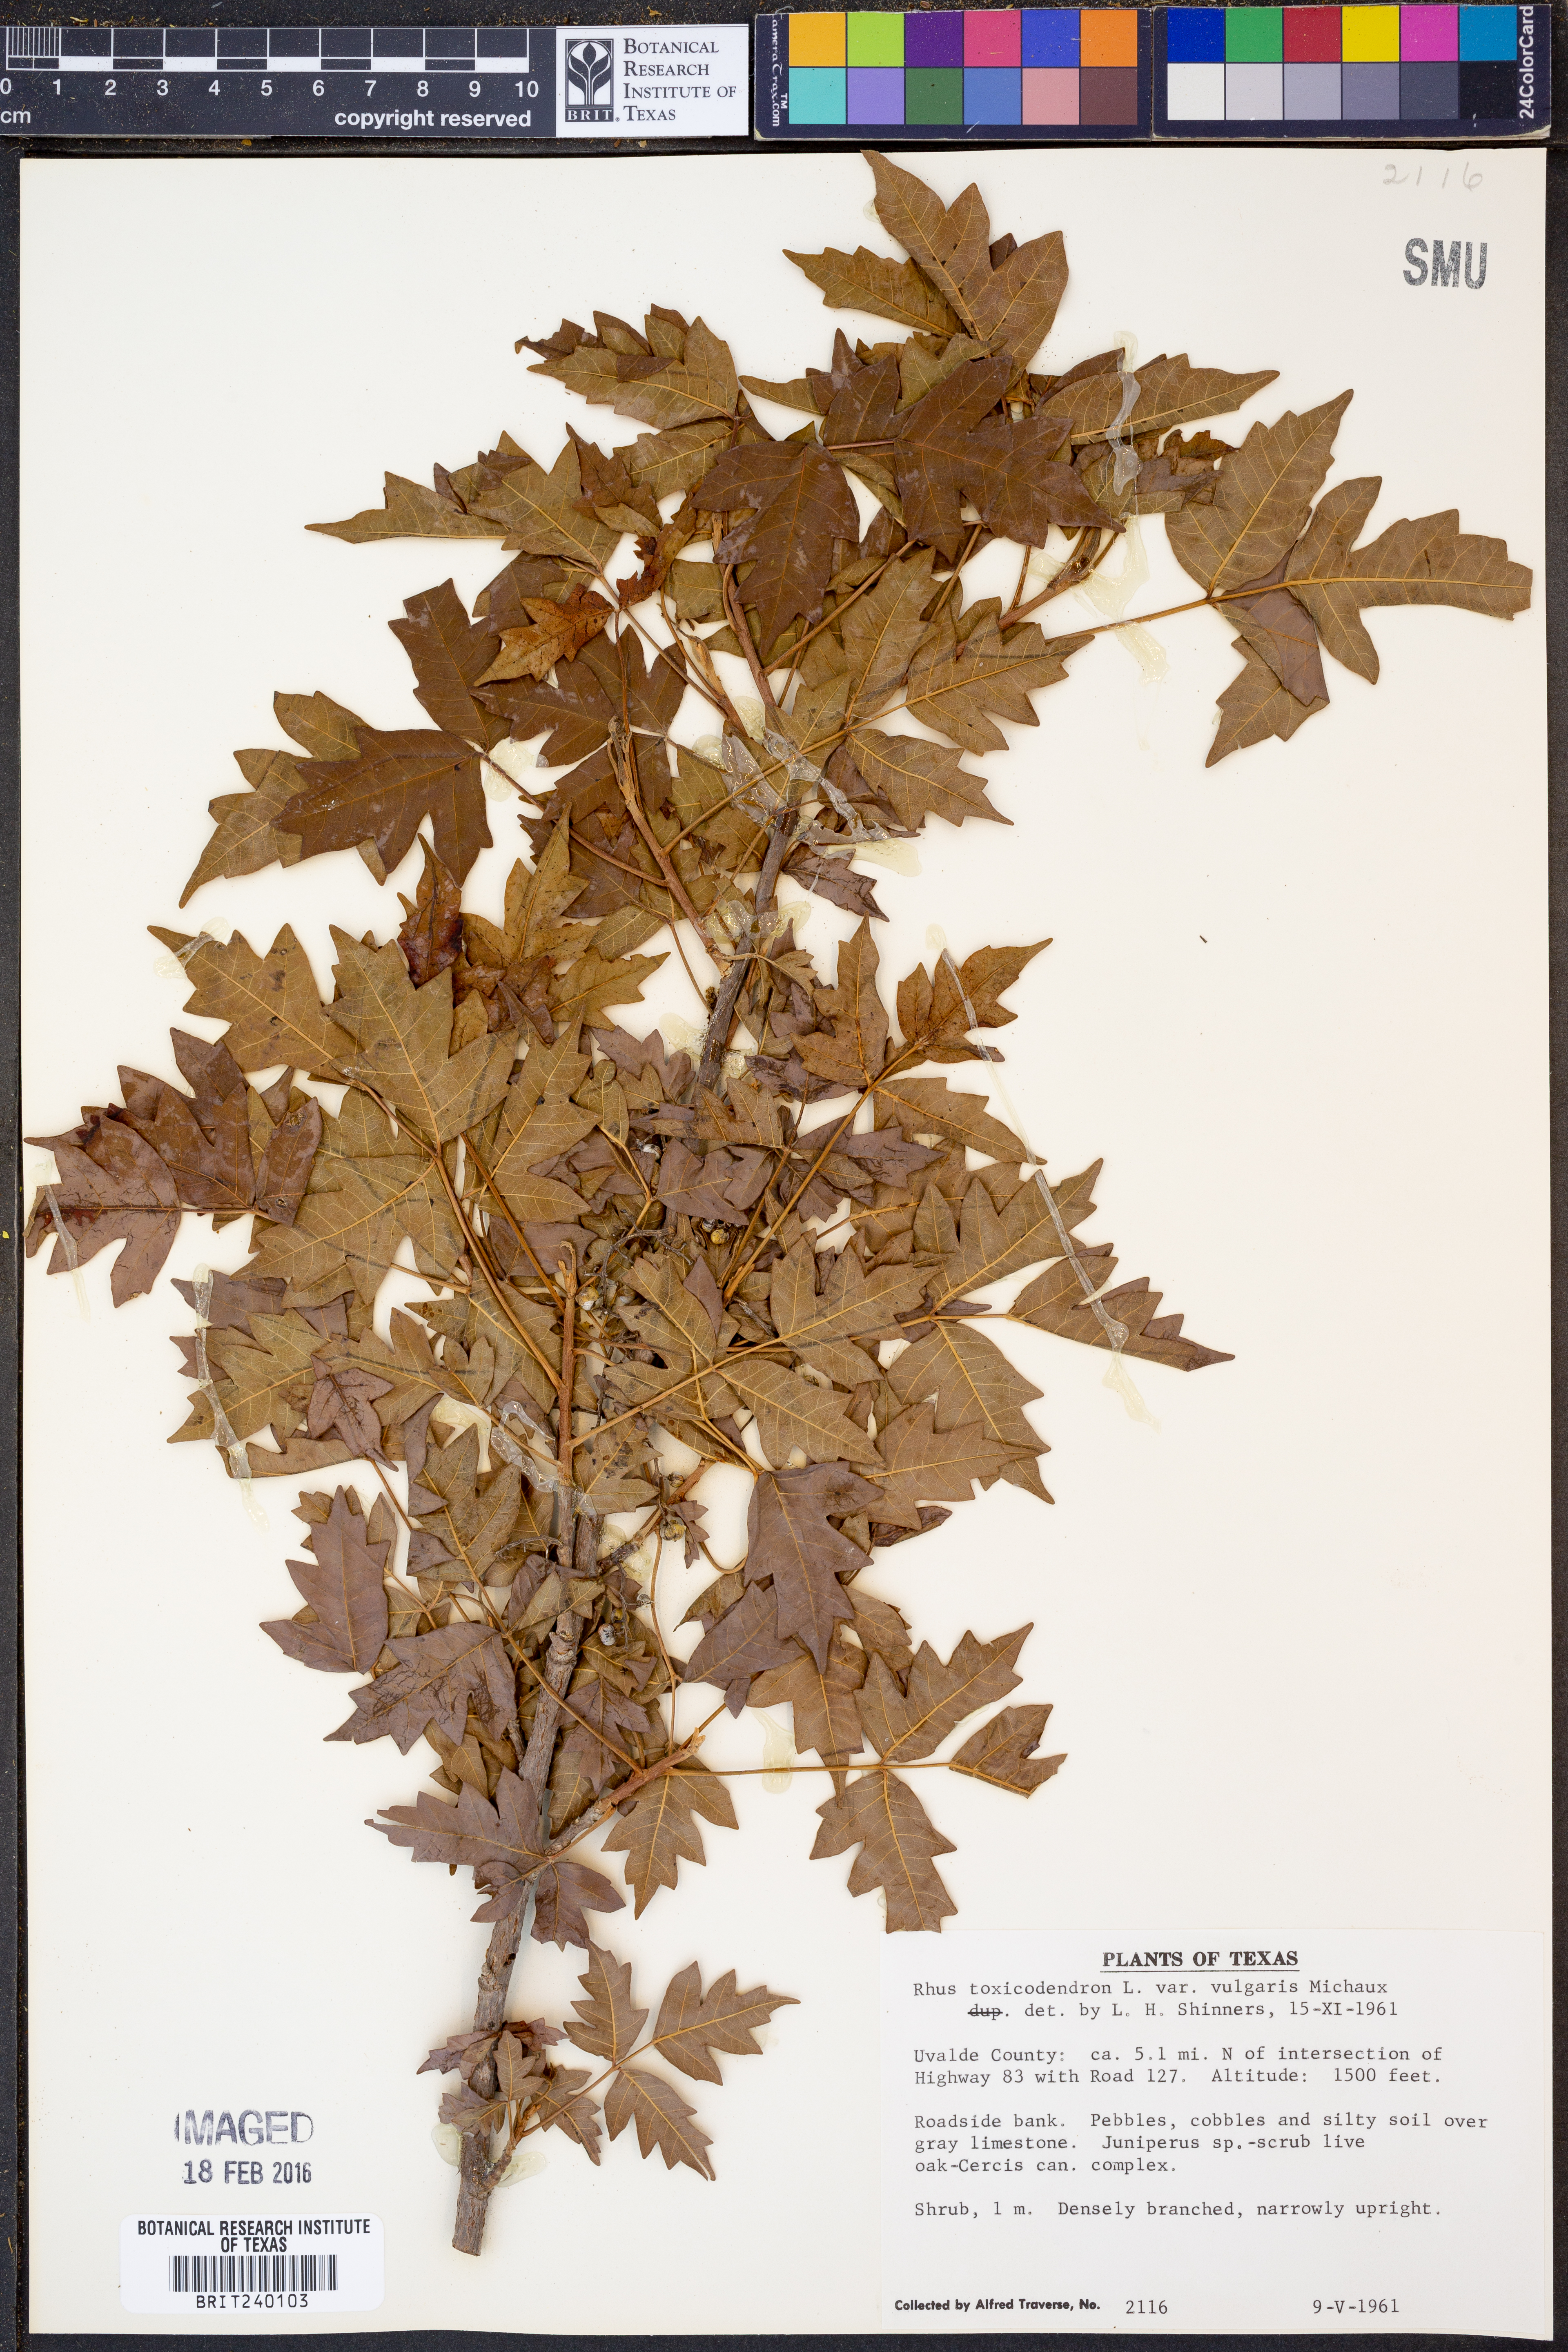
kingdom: Plantae
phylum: Tracheophyta
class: Magnoliopsida
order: Sapindales
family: Anacardiaceae
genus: Toxicodendron
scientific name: Toxicodendron rydbergii
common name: Rydberg's poison-ivy
